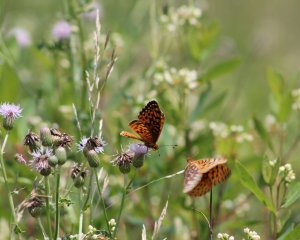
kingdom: Animalia
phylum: Arthropoda
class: Insecta
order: Lepidoptera
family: Nymphalidae
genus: Speyeria
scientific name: Speyeria cybele
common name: Great Spangled Fritillary
